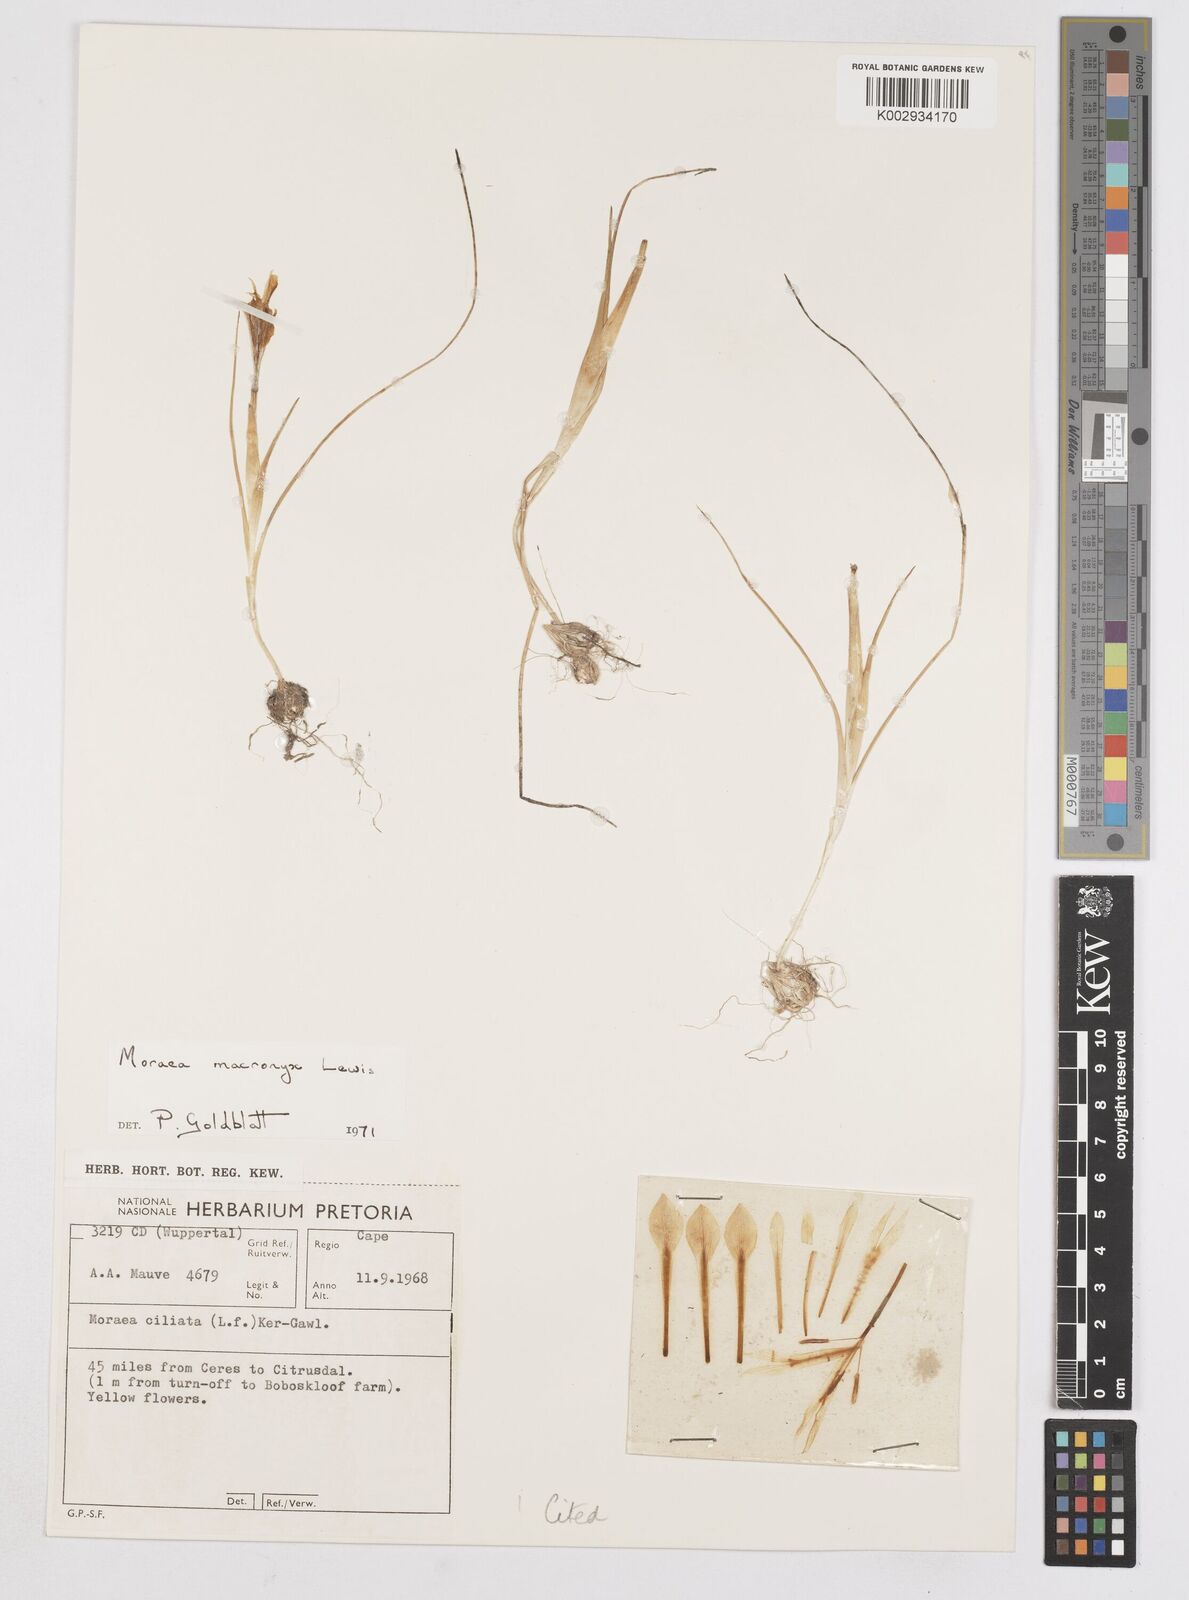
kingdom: Plantae
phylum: Tracheophyta
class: Liliopsida
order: Asparagales
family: Iridaceae
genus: Moraea
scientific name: Moraea macronyx
